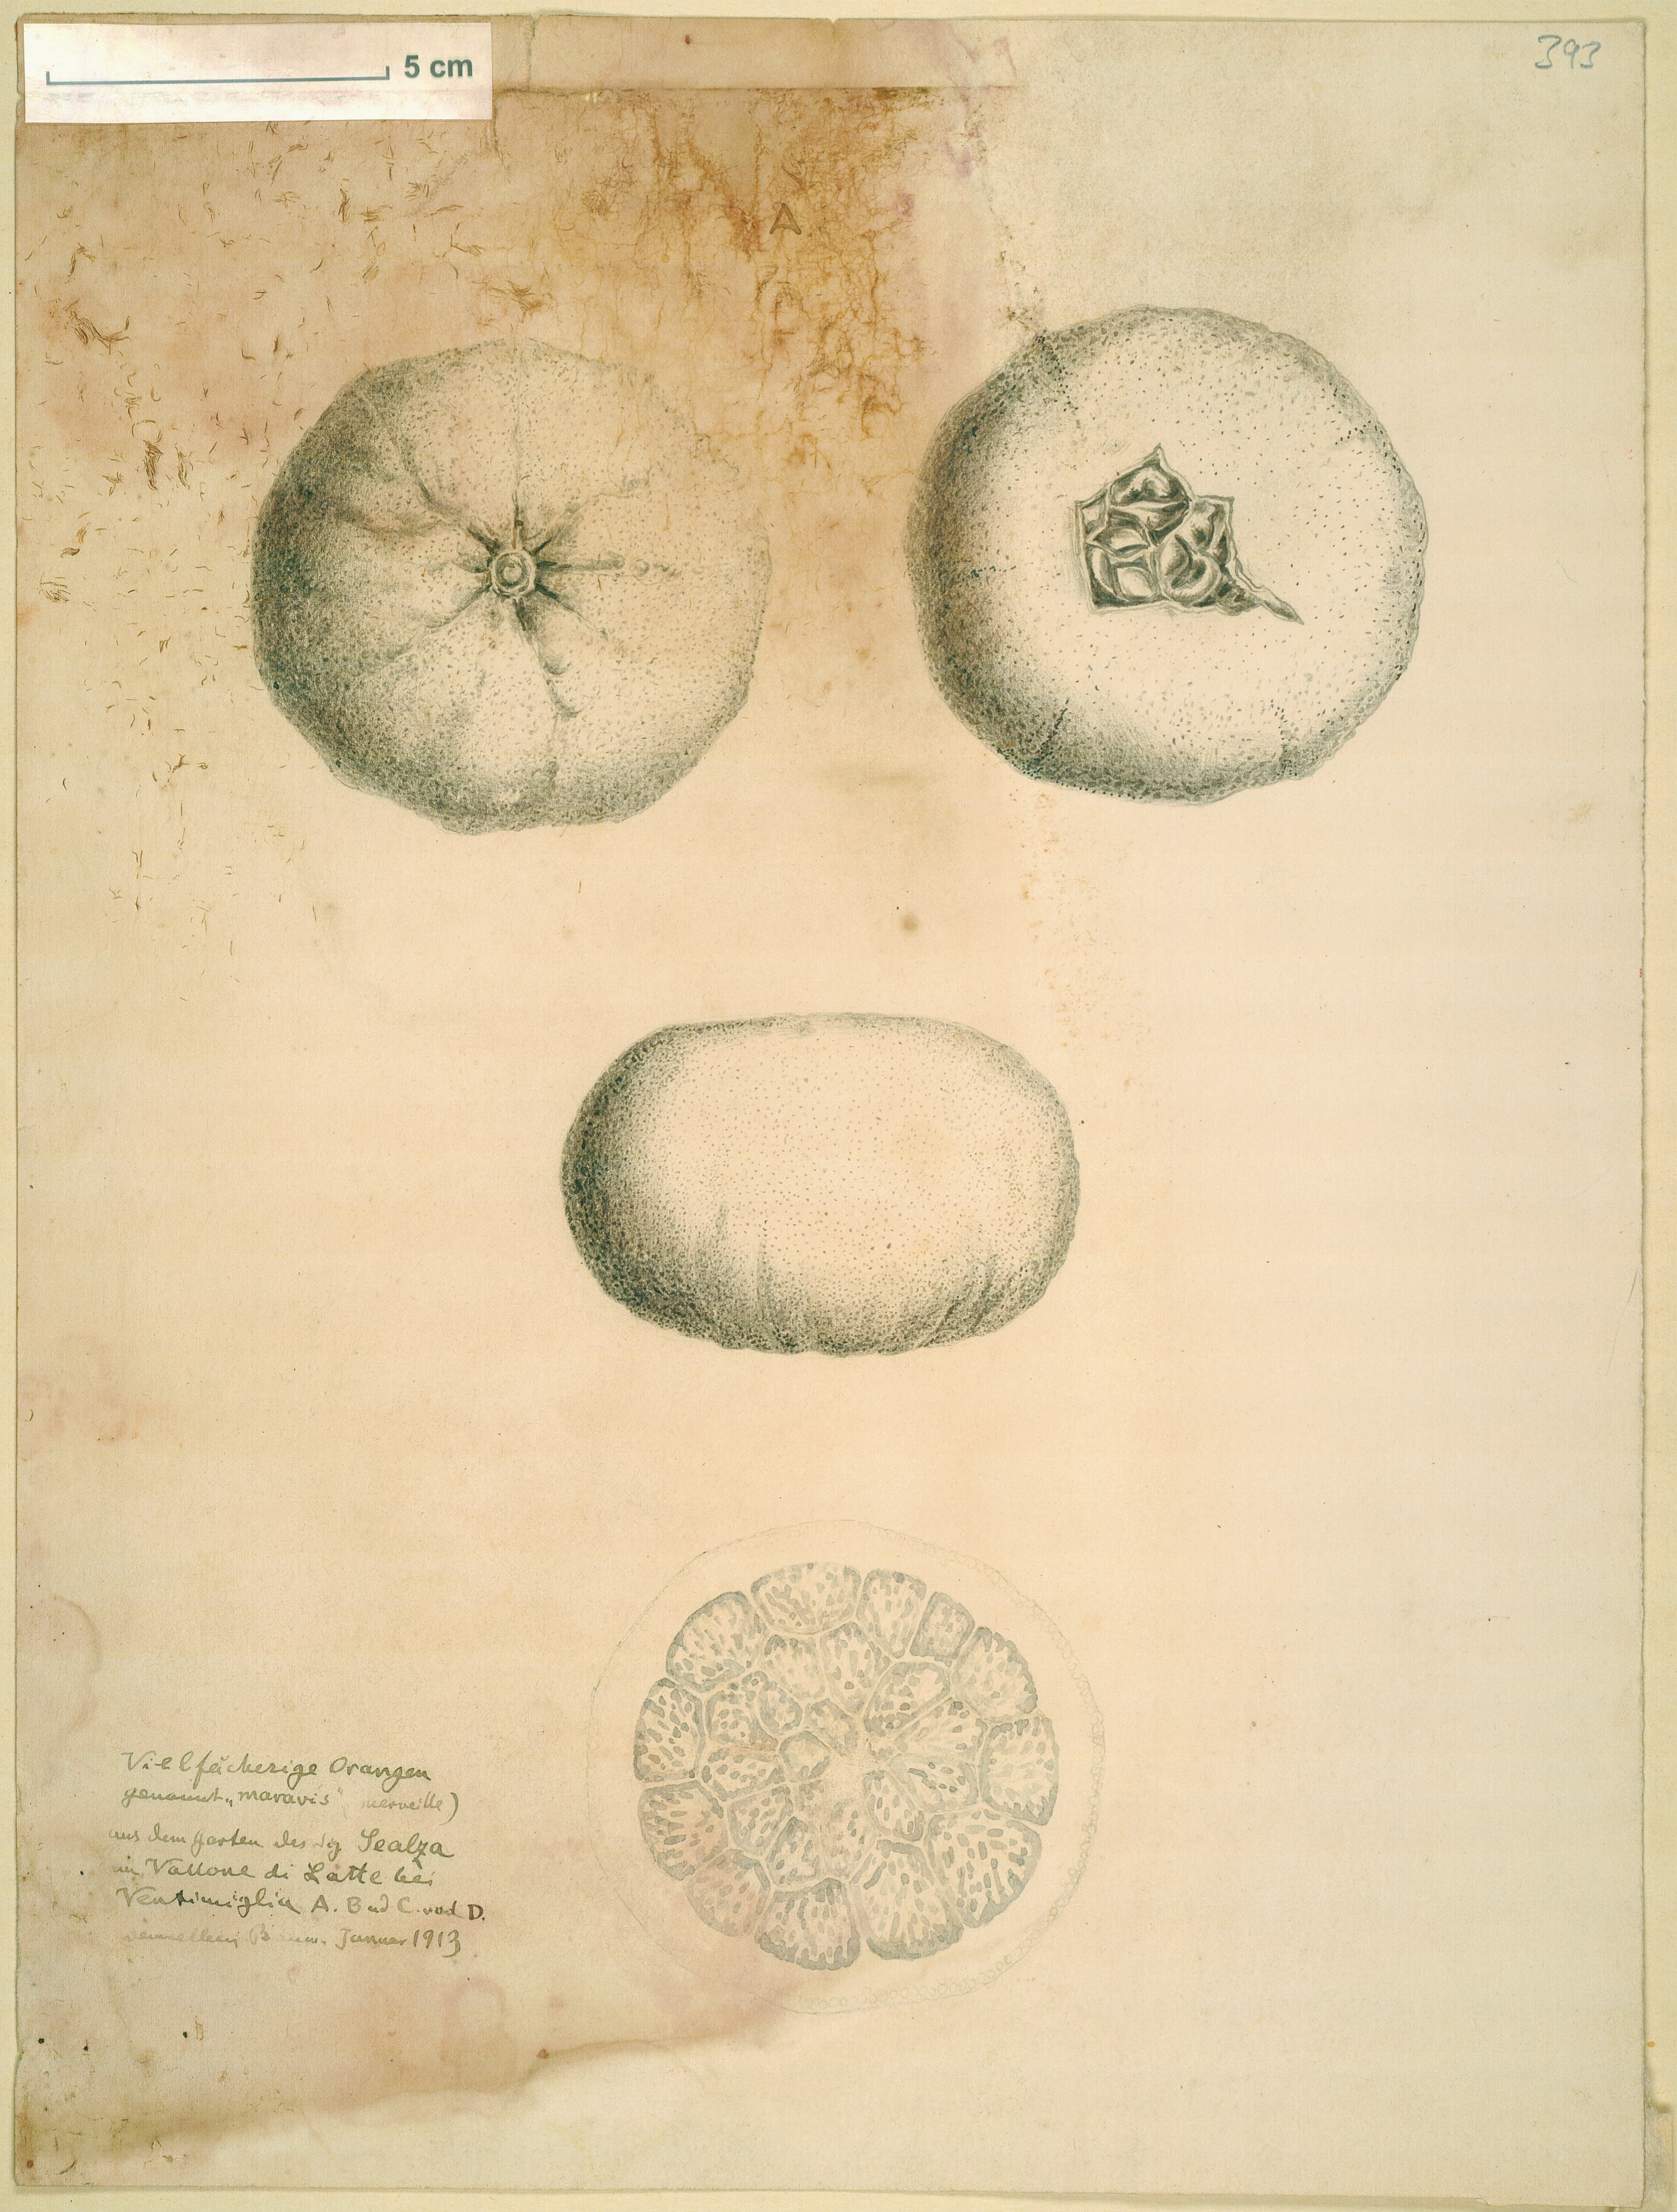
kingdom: Plantae
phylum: Tracheophyta
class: Magnoliopsida
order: Sapindales
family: Rutaceae
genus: Citrus
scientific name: Citrus
